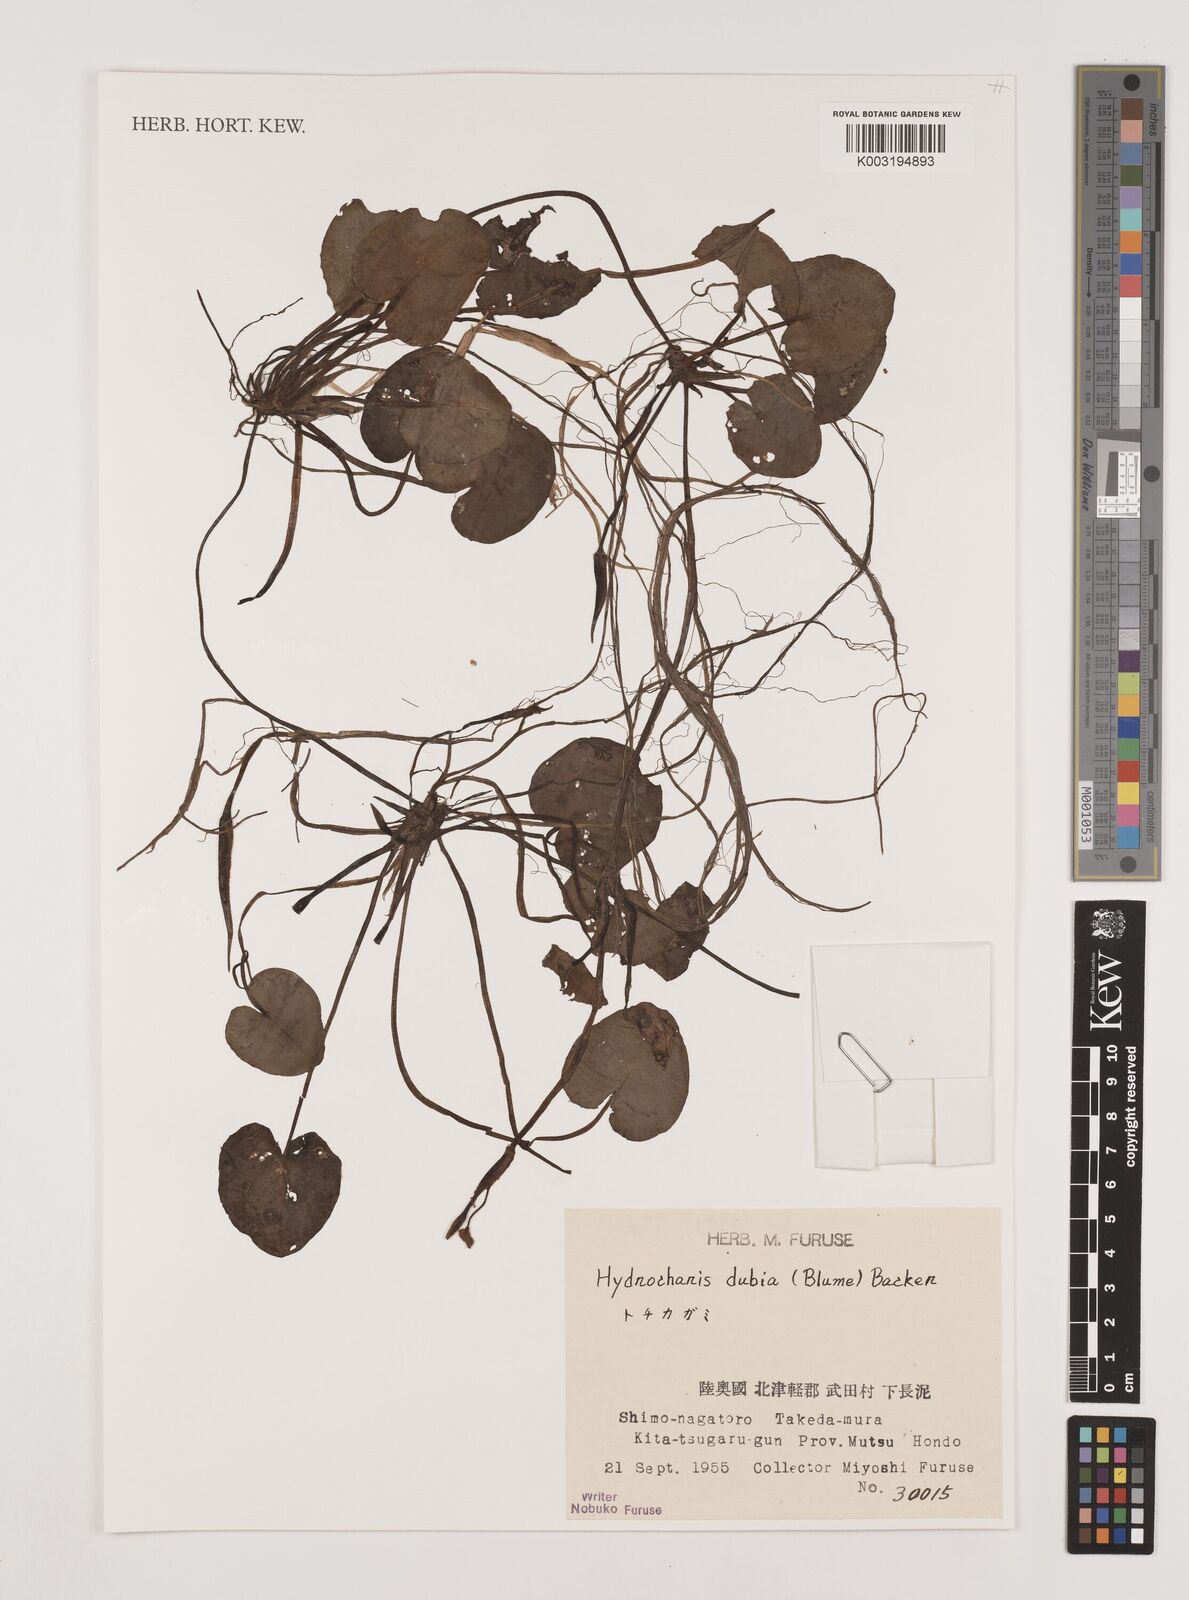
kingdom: Plantae
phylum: Tracheophyta
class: Liliopsida
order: Alismatales
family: Hydrocharitaceae
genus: Hydrocharis
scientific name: Hydrocharis dubia
